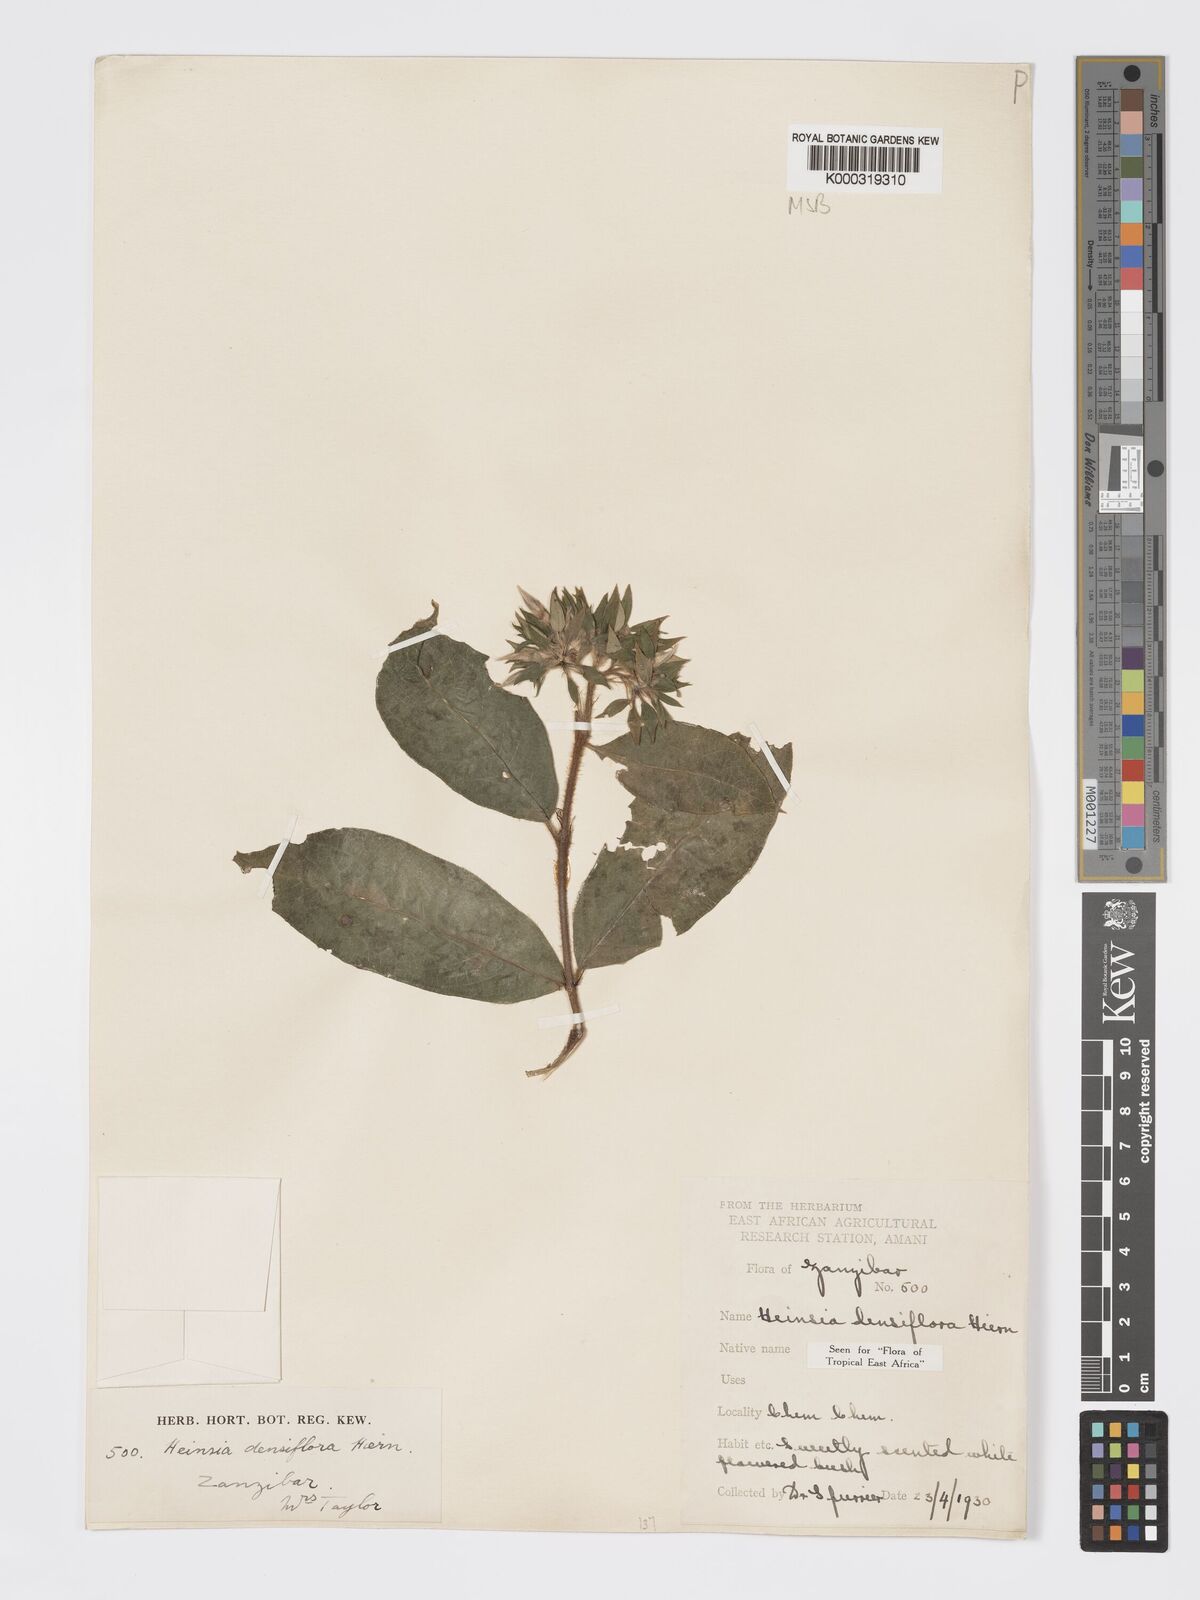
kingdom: Plantae
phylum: Tracheophyta
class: Magnoliopsida
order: Gentianales
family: Rubiaceae
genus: Heinsia
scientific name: Heinsia zanzibarica
